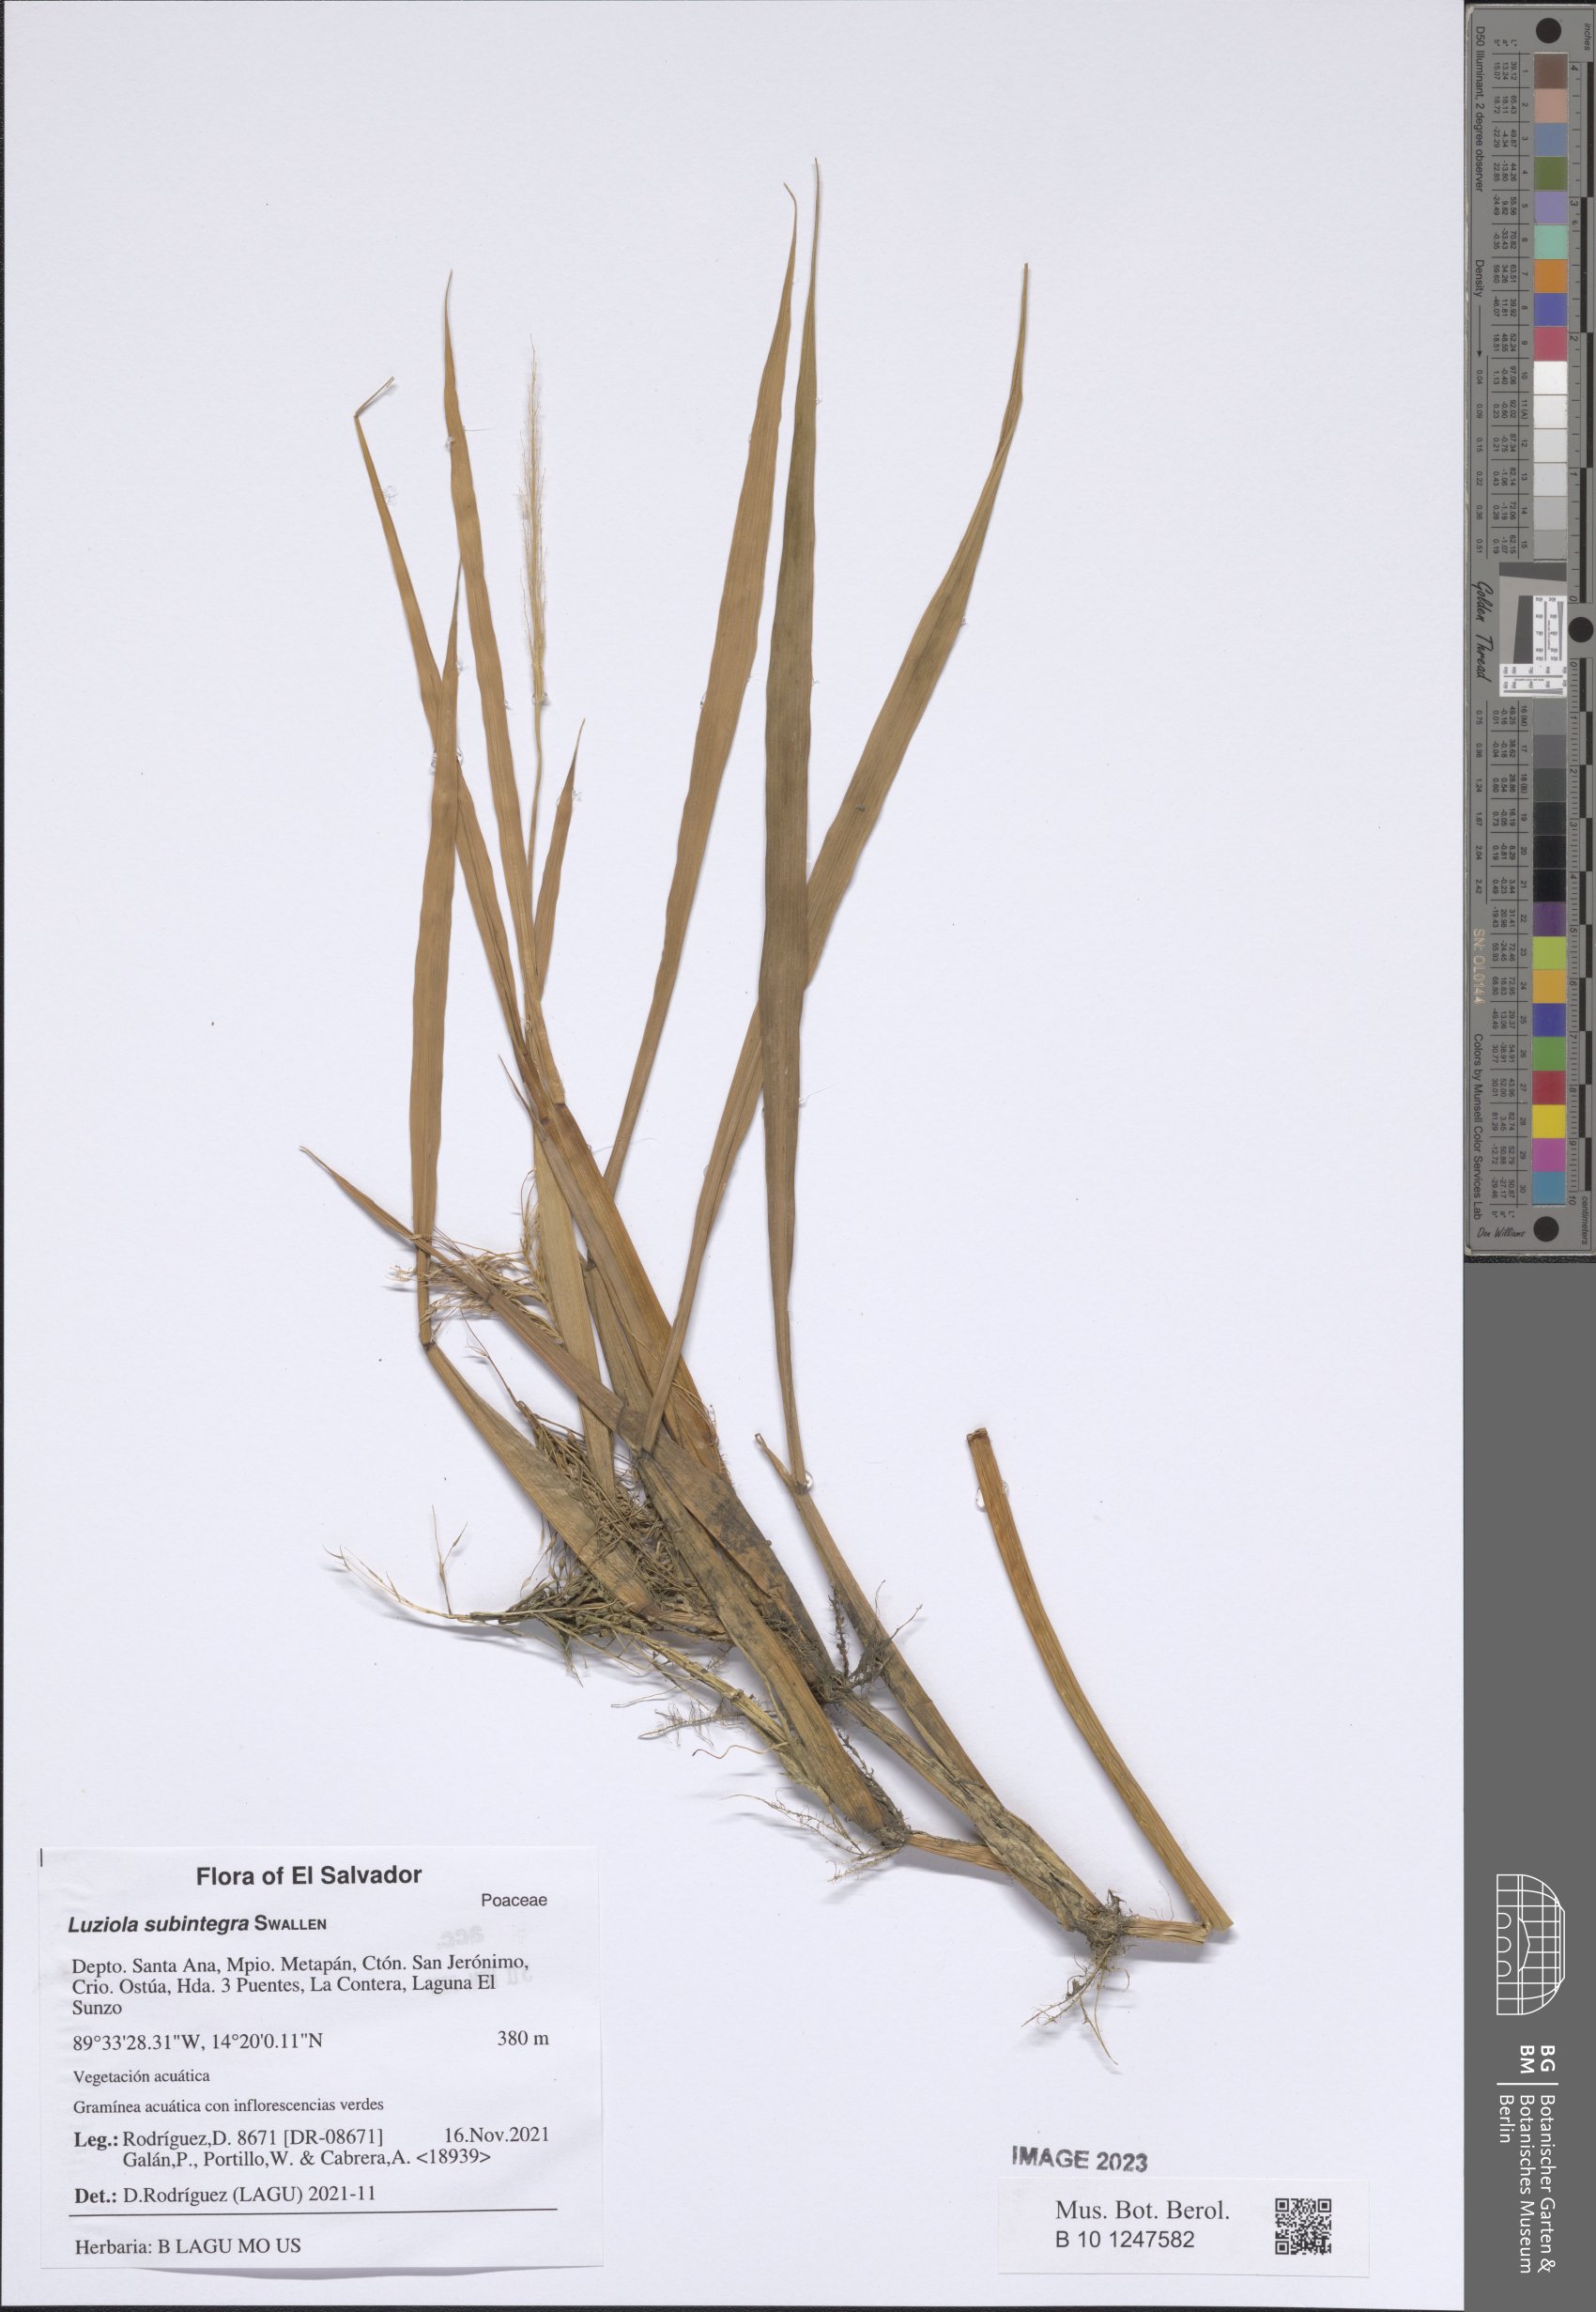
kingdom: Plantae
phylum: Tracheophyta
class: Liliopsida
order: Poales
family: Poaceae
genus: Luziola
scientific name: Luziola subintegra
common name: Large watergrass
